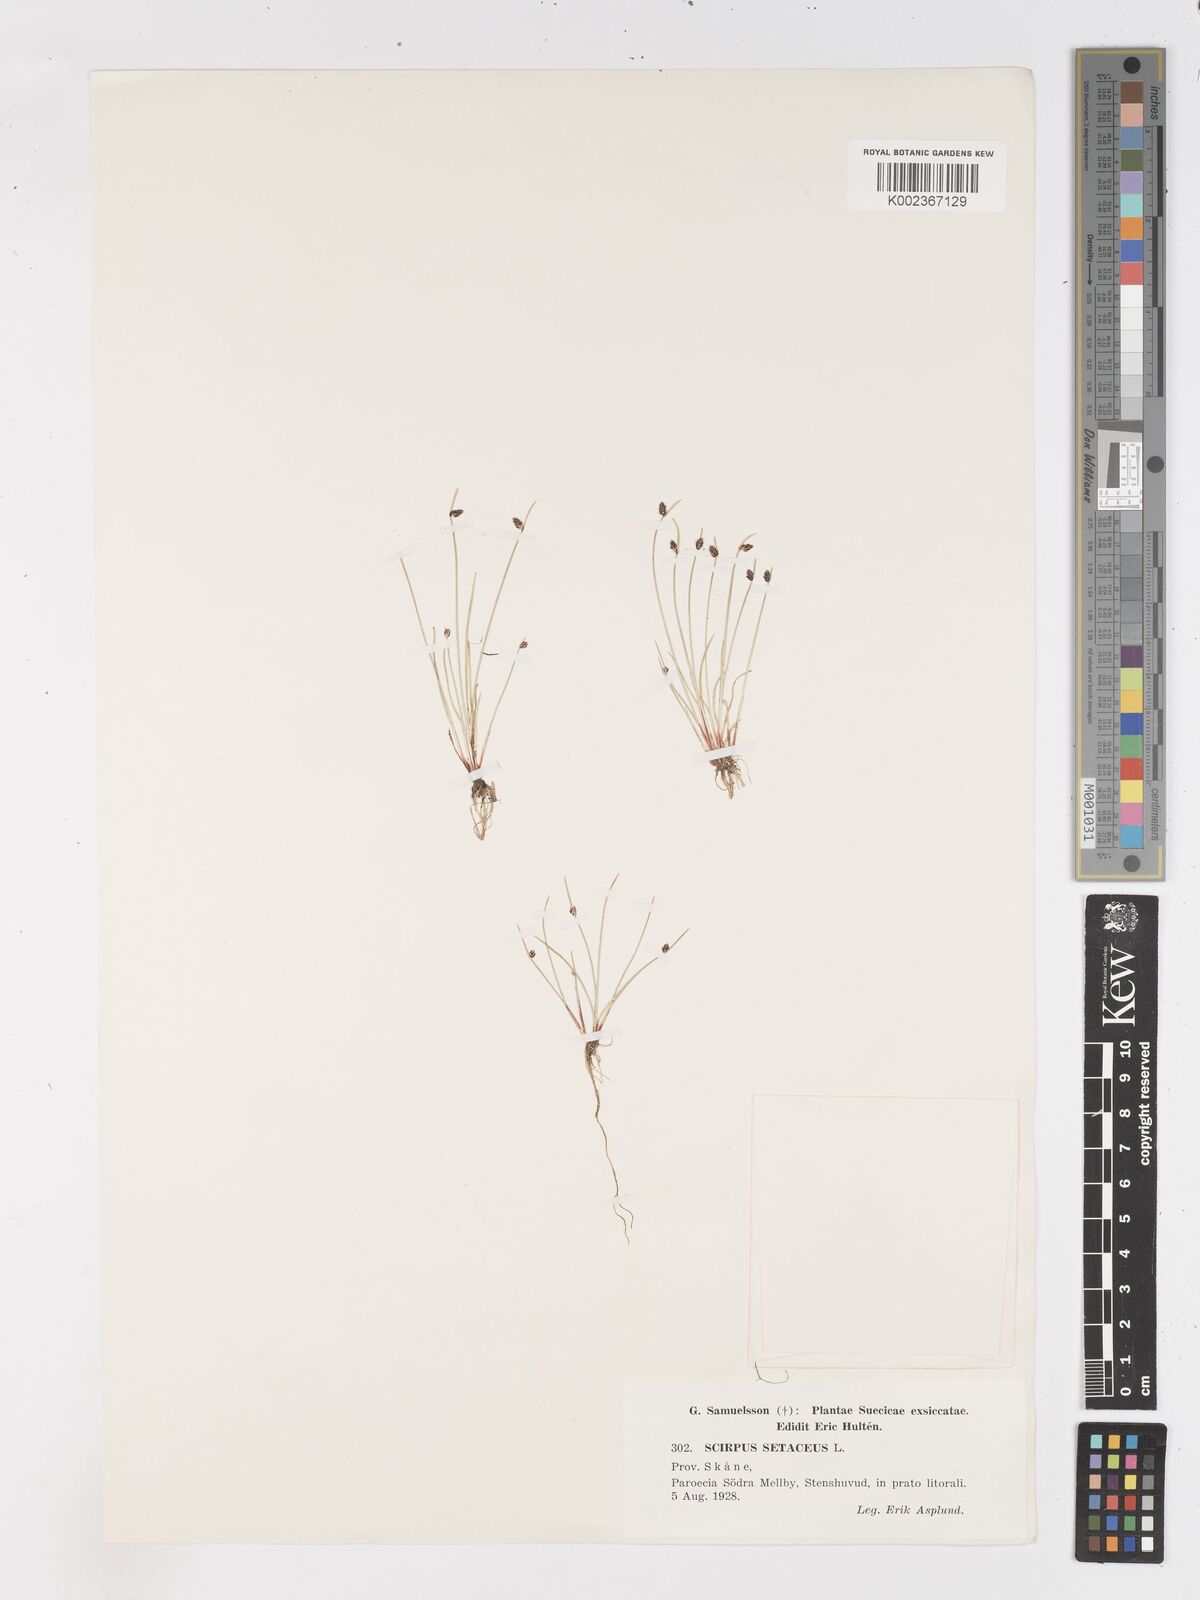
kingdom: Plantae
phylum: Tracheophyta
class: Liliopsida
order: Poales
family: Cyperaceae
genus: Isolepis
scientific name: Isolepis setacea
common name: Bristle club-rush
